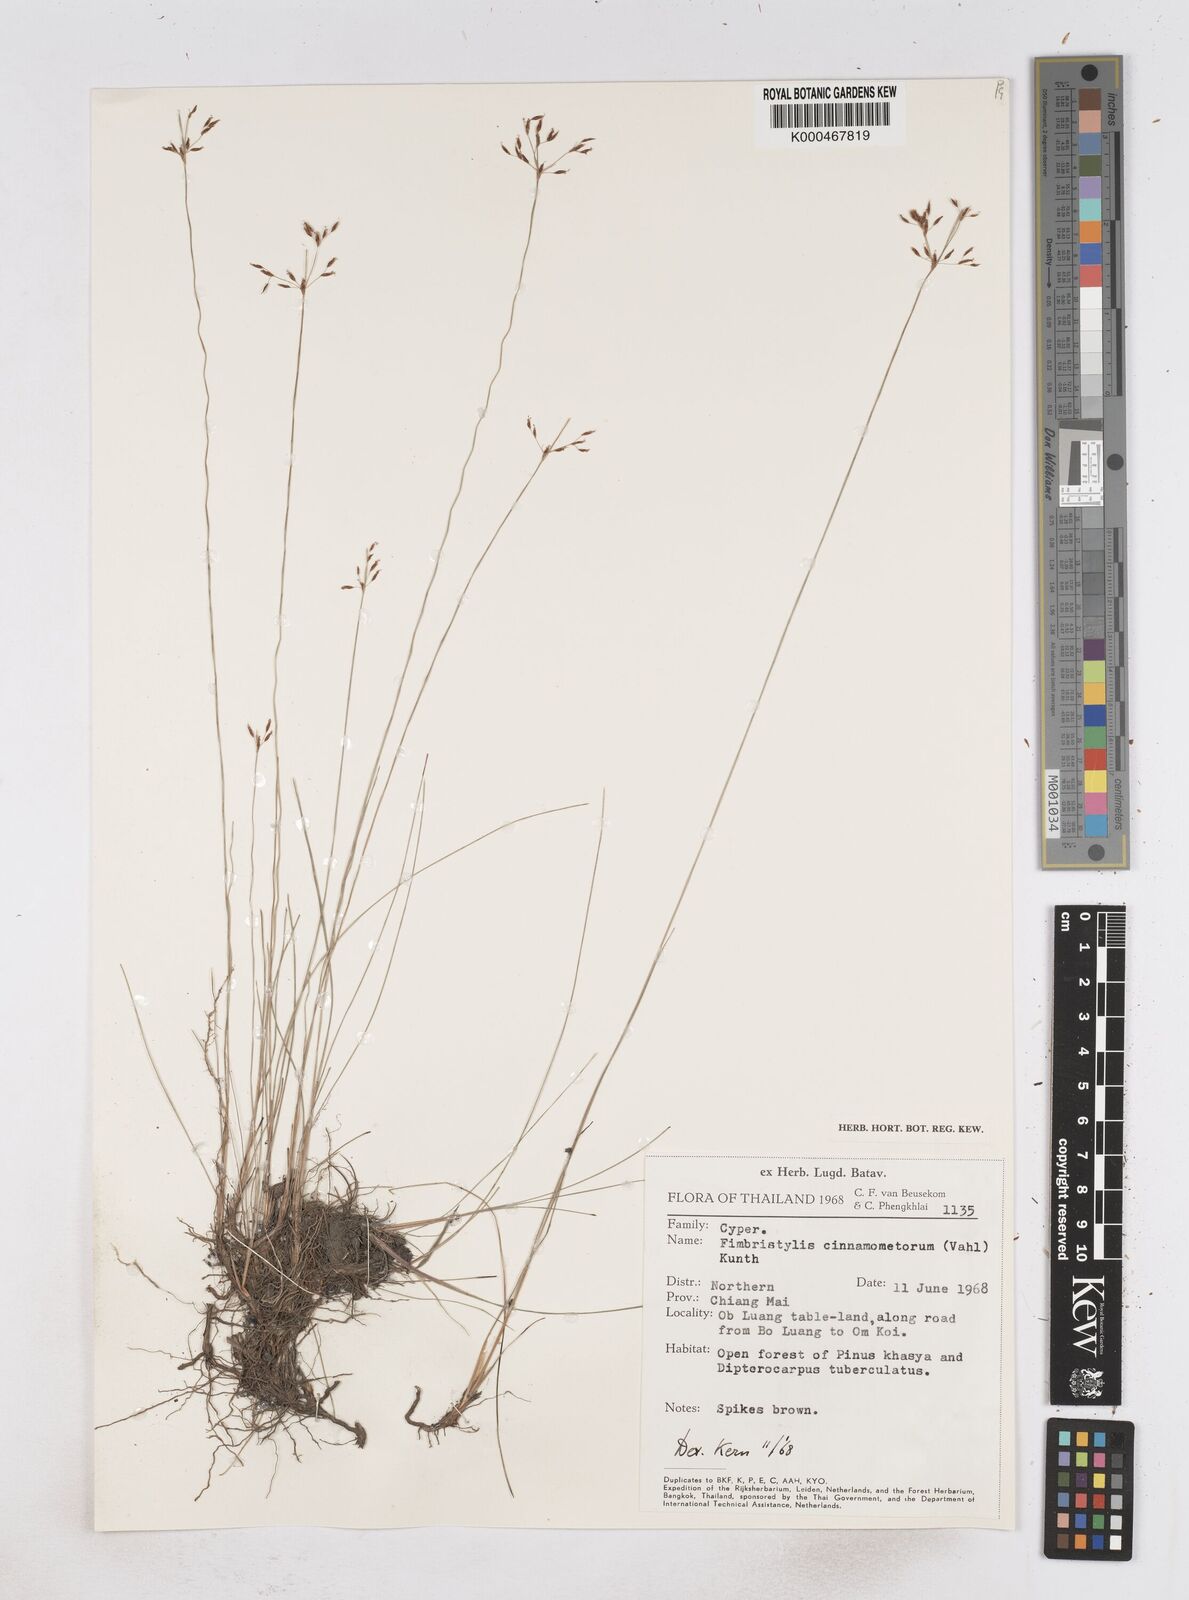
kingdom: Plantae
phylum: Tracheophyta
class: Liliopsida
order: Poales
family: Cyperaceae
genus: Fimbristylis
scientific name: Fimbristylis cinnamometorum
